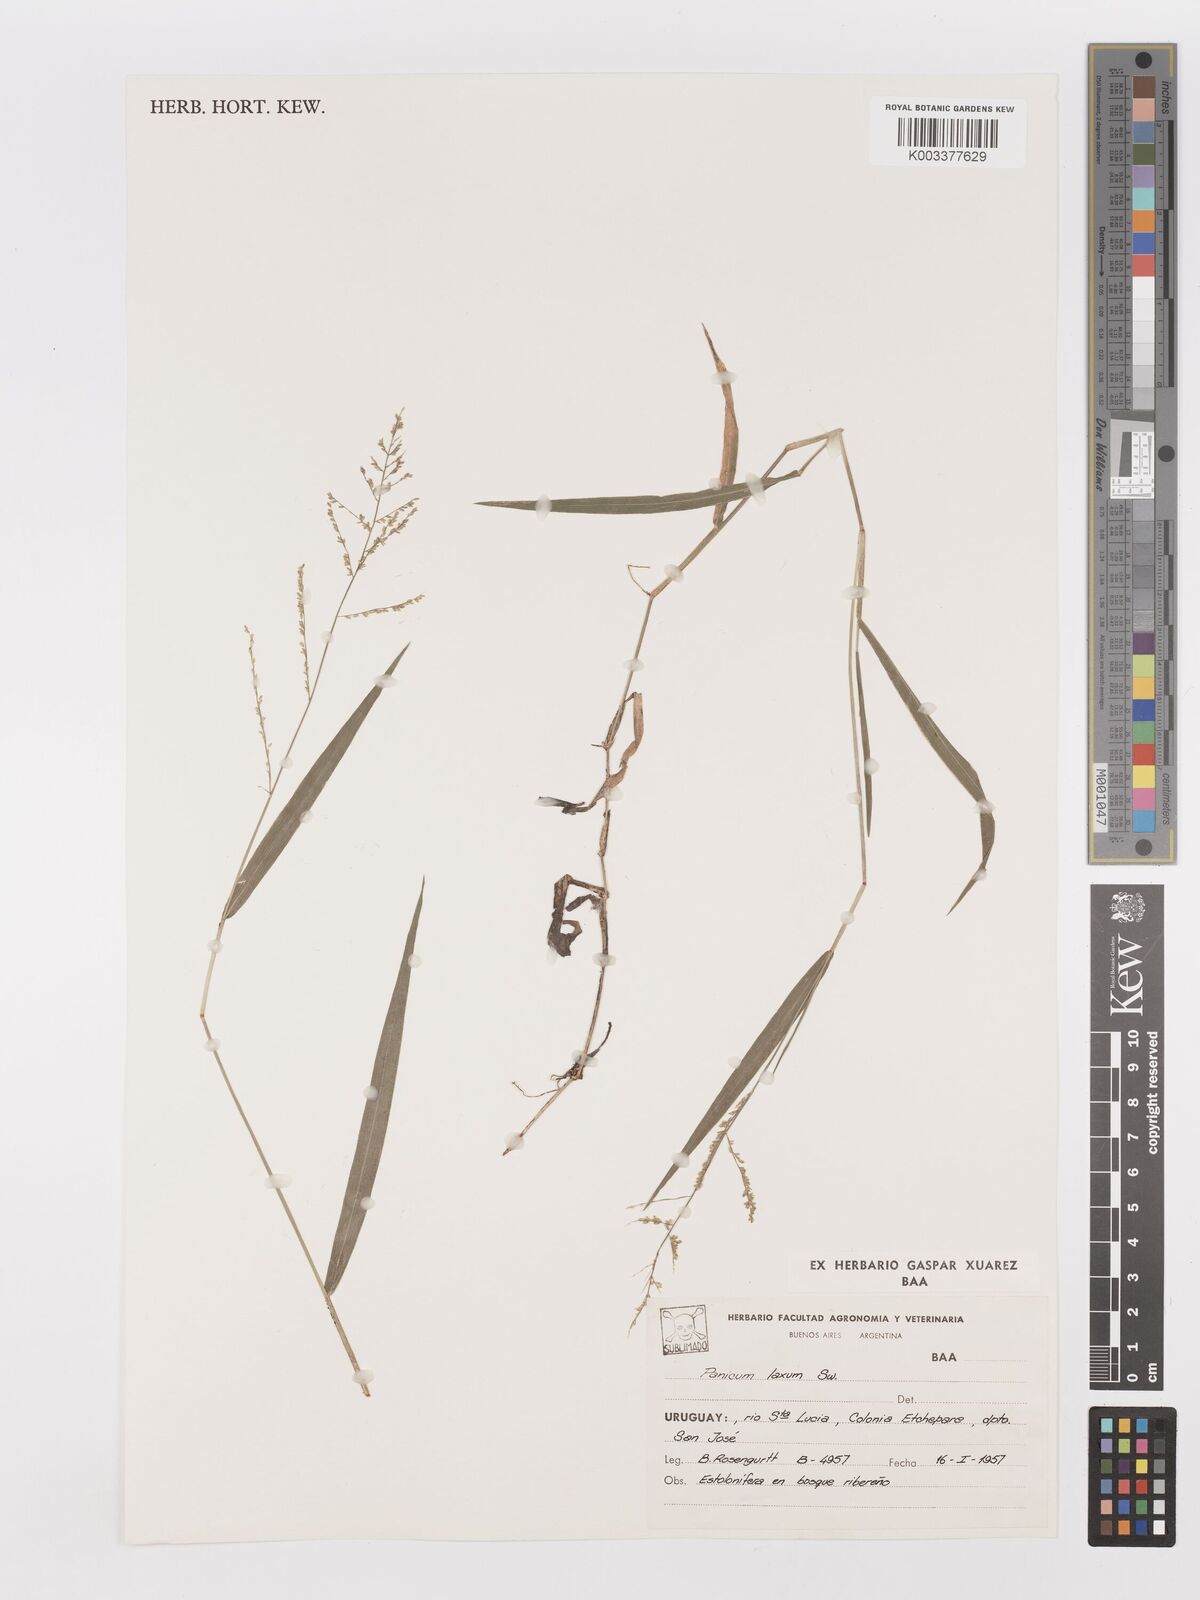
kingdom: Plantae
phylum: Tracheophyta
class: Liliopsida
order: Poales
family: Poaceae
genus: Steinchisma
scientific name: Steinchisma laxum
